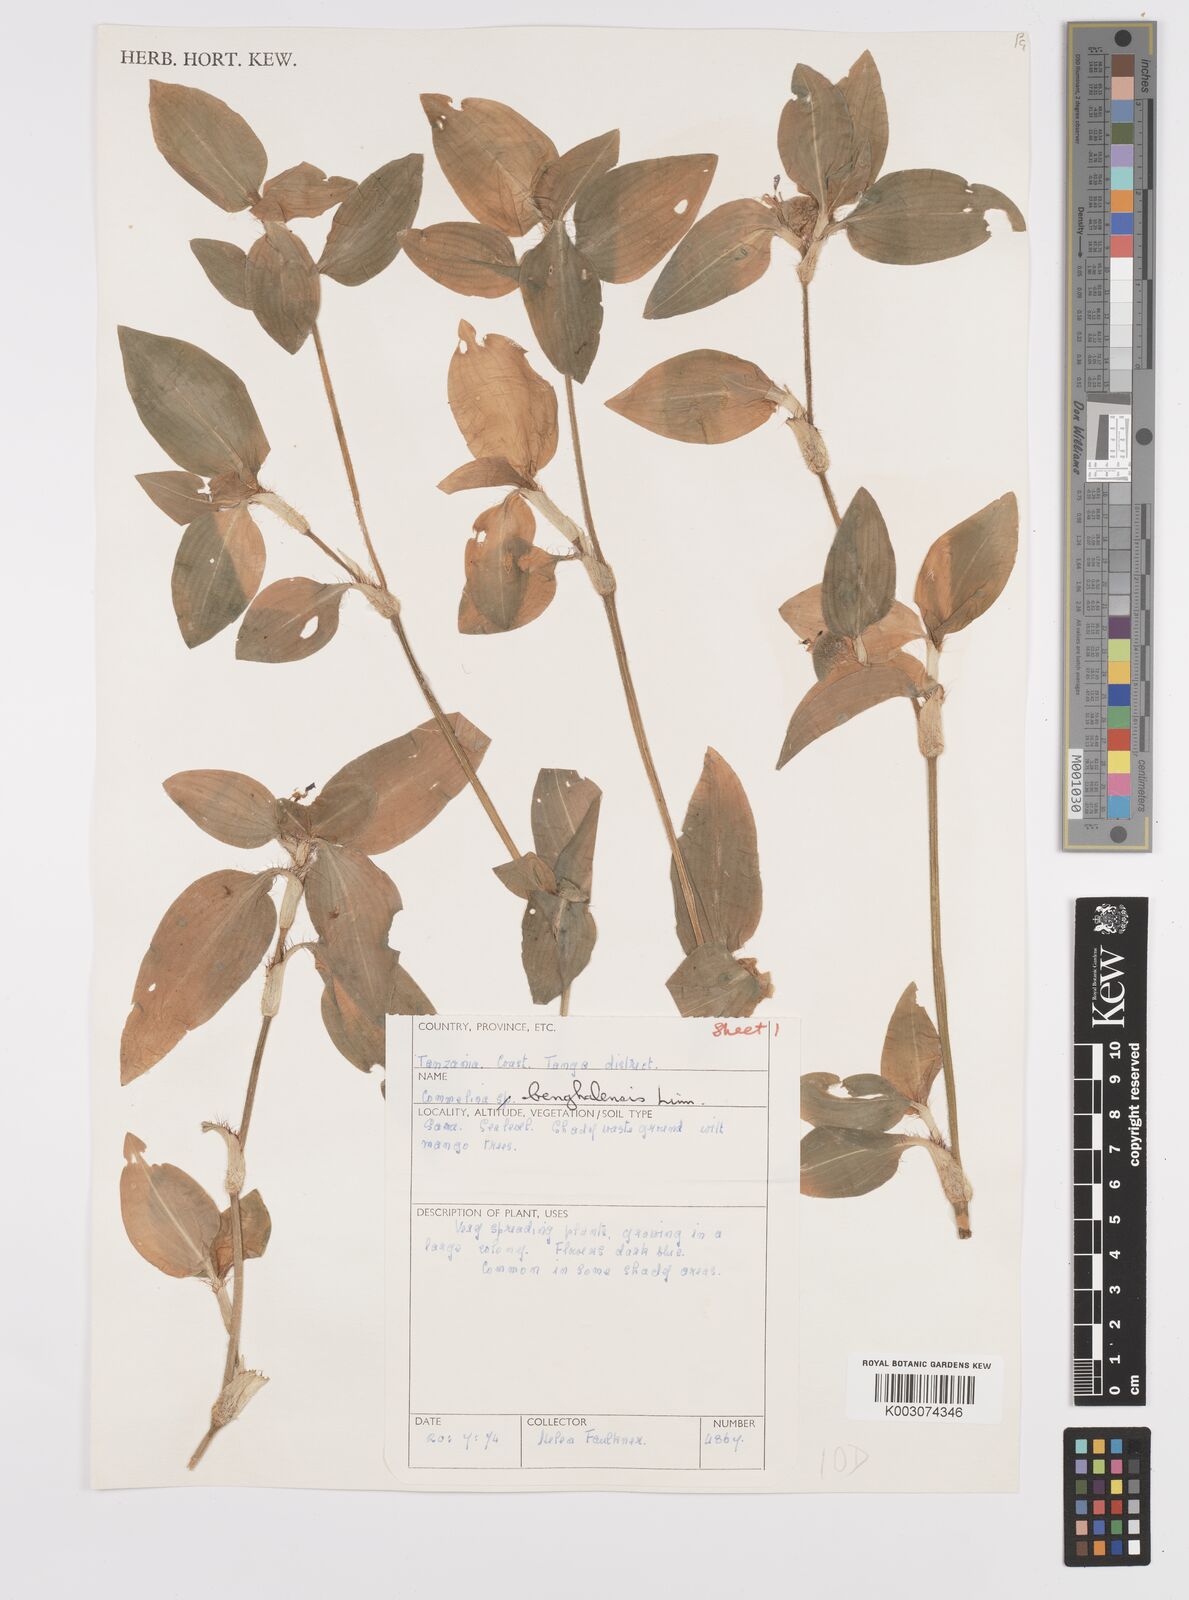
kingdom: Plantae
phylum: Tracheophyta
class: Liliopsida
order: Commelinales
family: Commelinaceae
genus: Commelina
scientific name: Commelina benghalensis
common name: Jio
